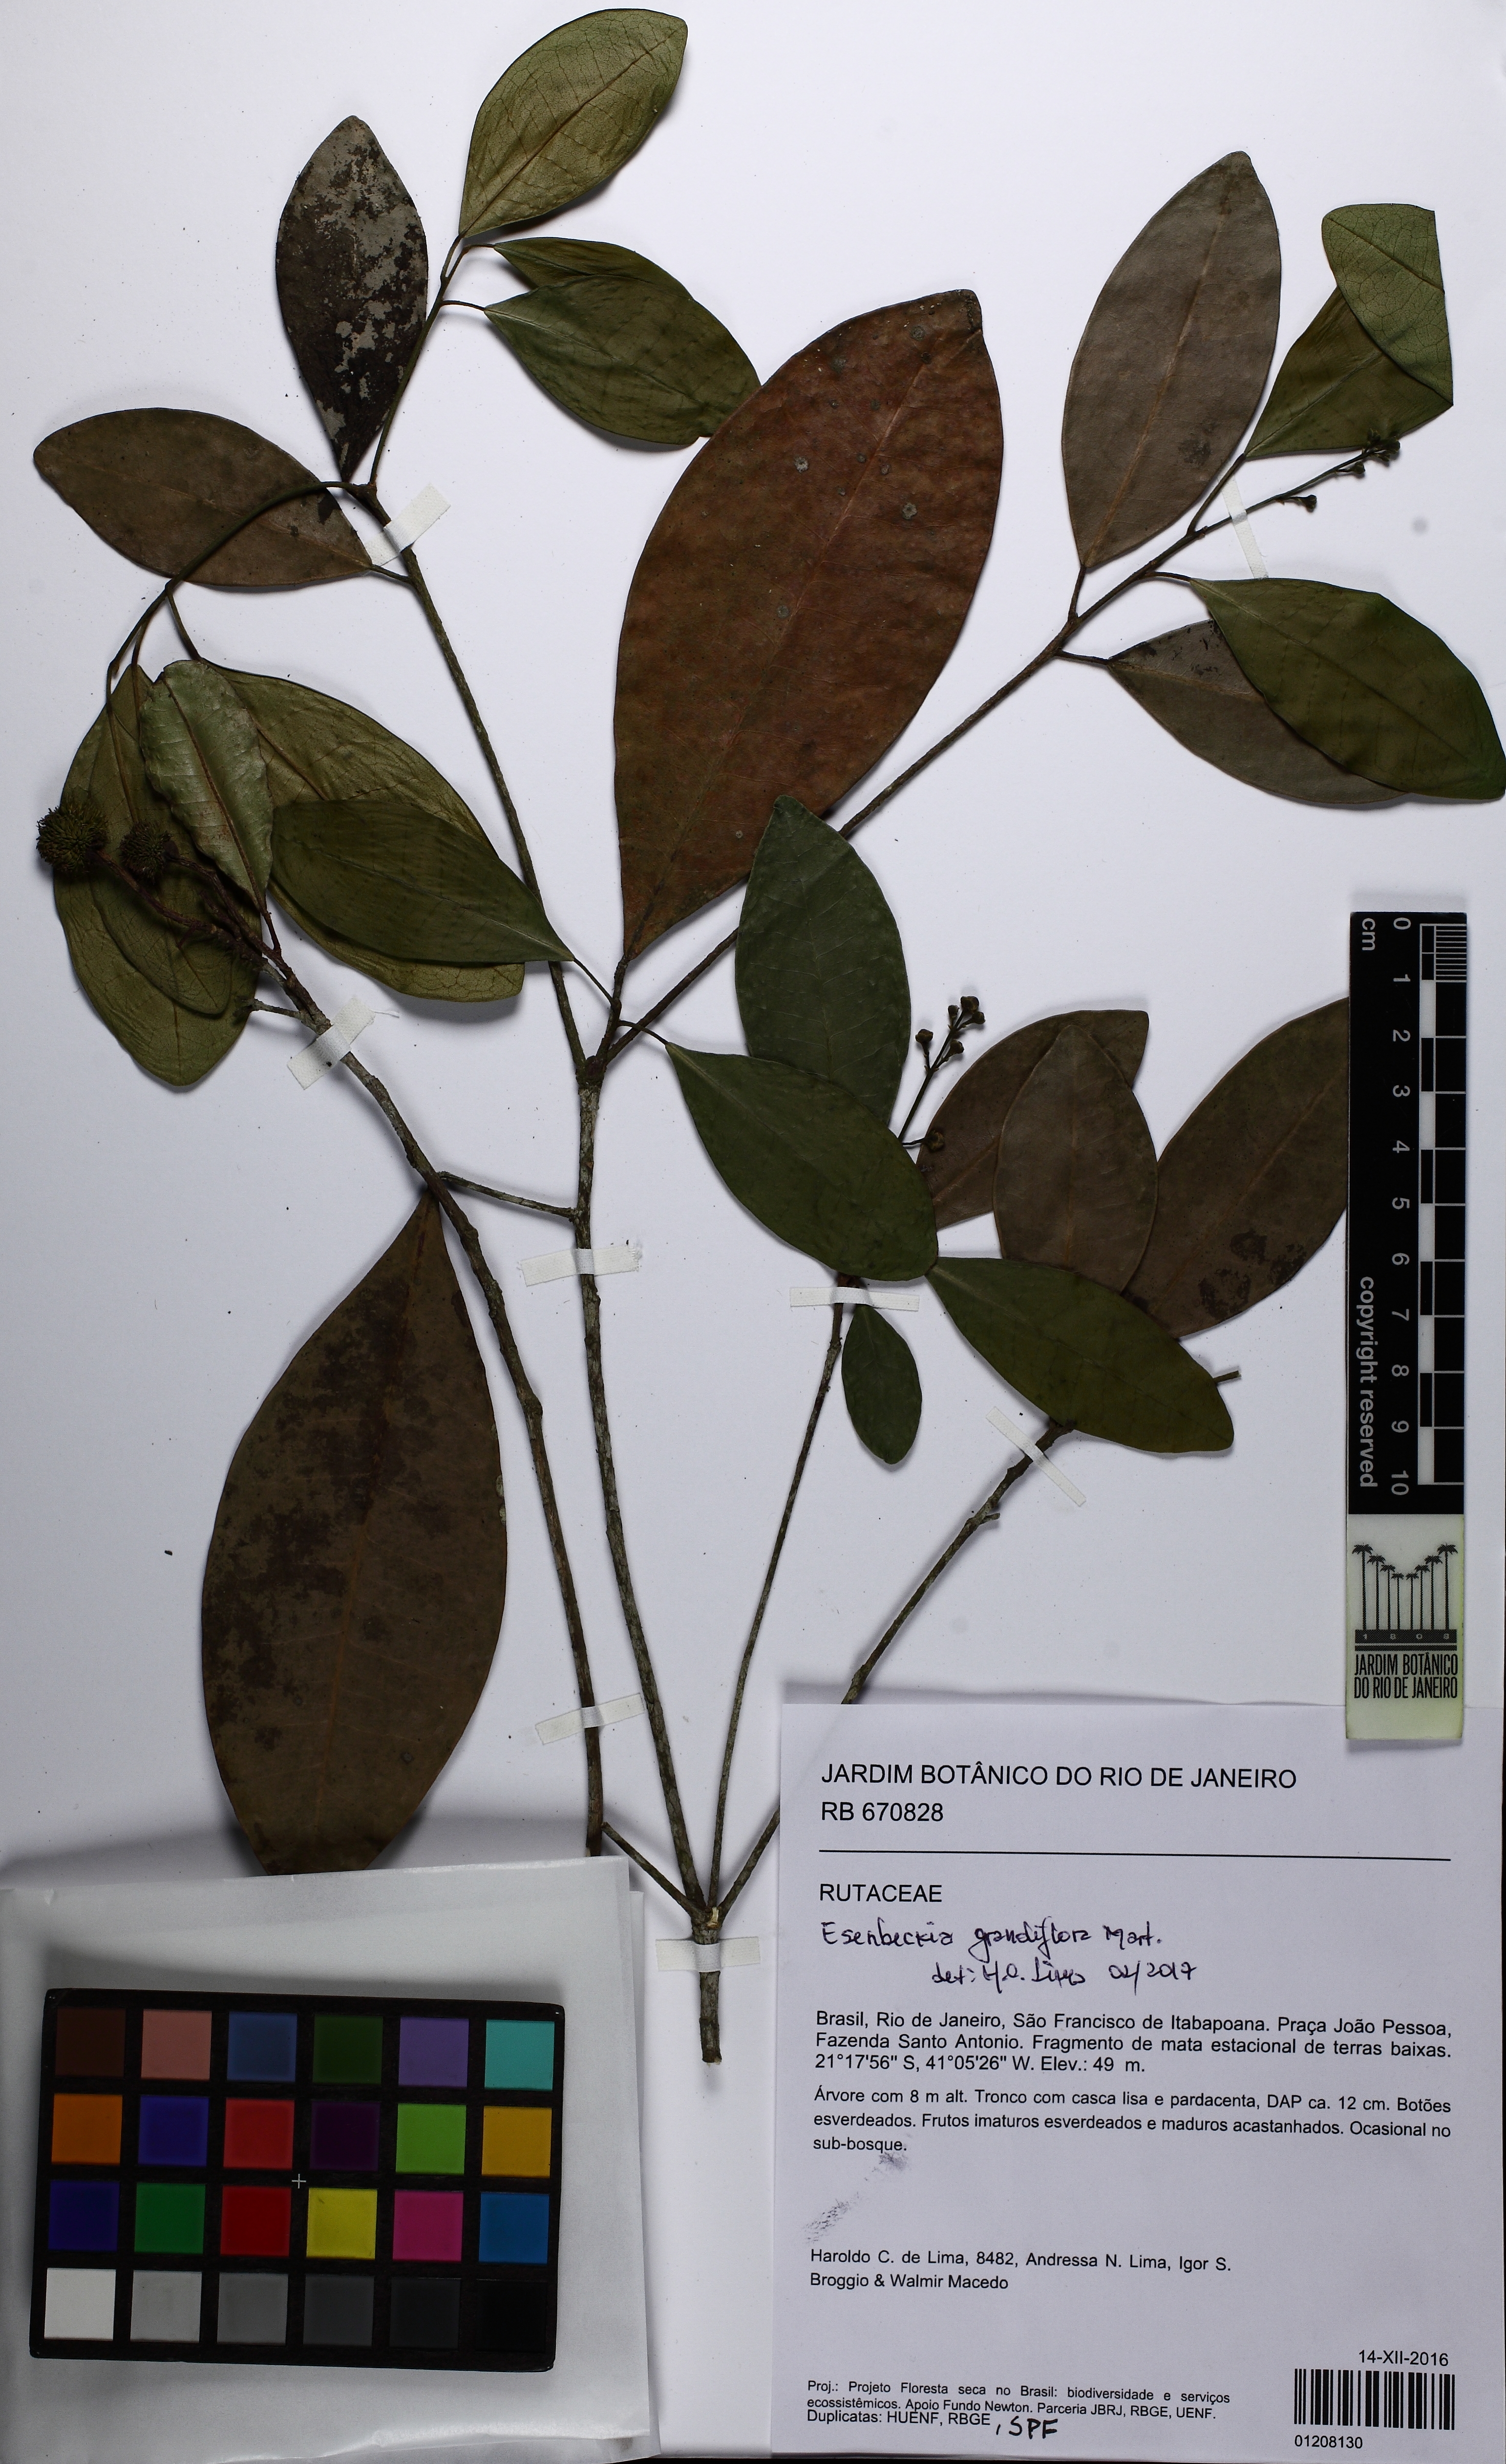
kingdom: Plantae
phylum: Tracheophyta
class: Magnoliopsida
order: Sapindales
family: Rutaceae
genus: Esenbeckia
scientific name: Esenbeckia grandiflora
